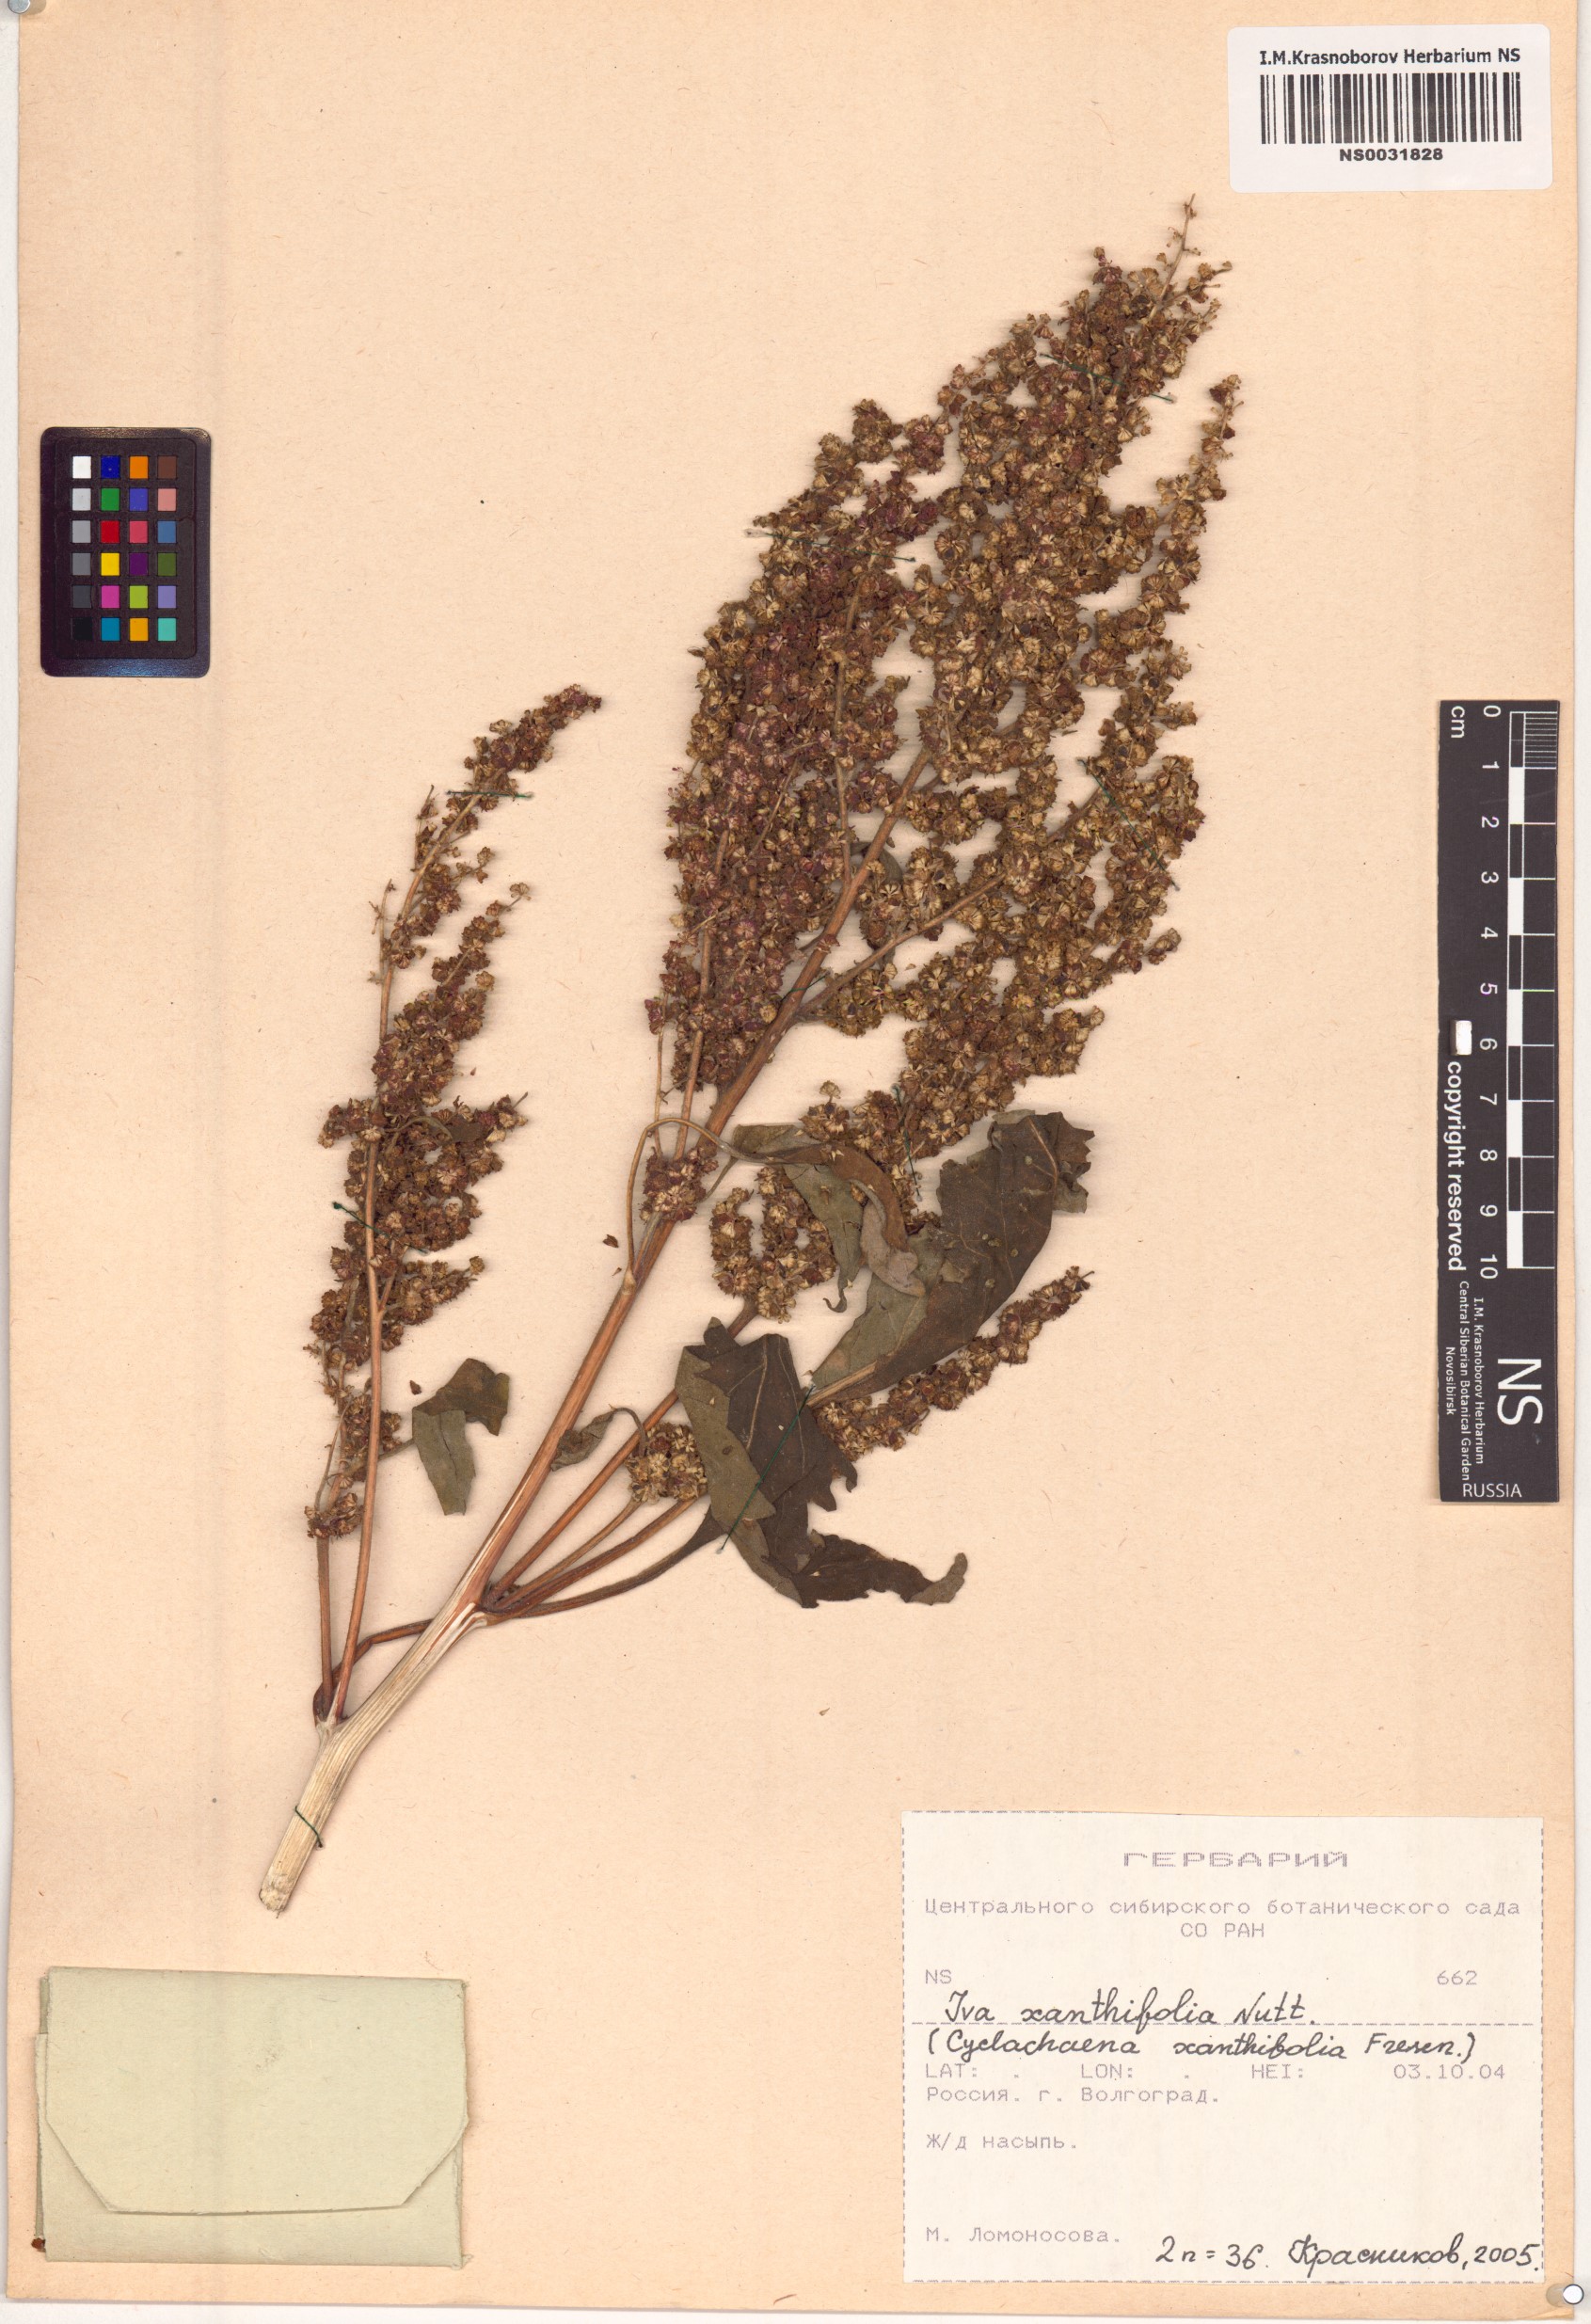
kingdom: Plantae
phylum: Tracheophyta
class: Magnoliopsida
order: Asterales
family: Asteraceae
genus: Cyclachaena
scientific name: Cyclachaena xanthiifolia
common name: Giant sumpweed
